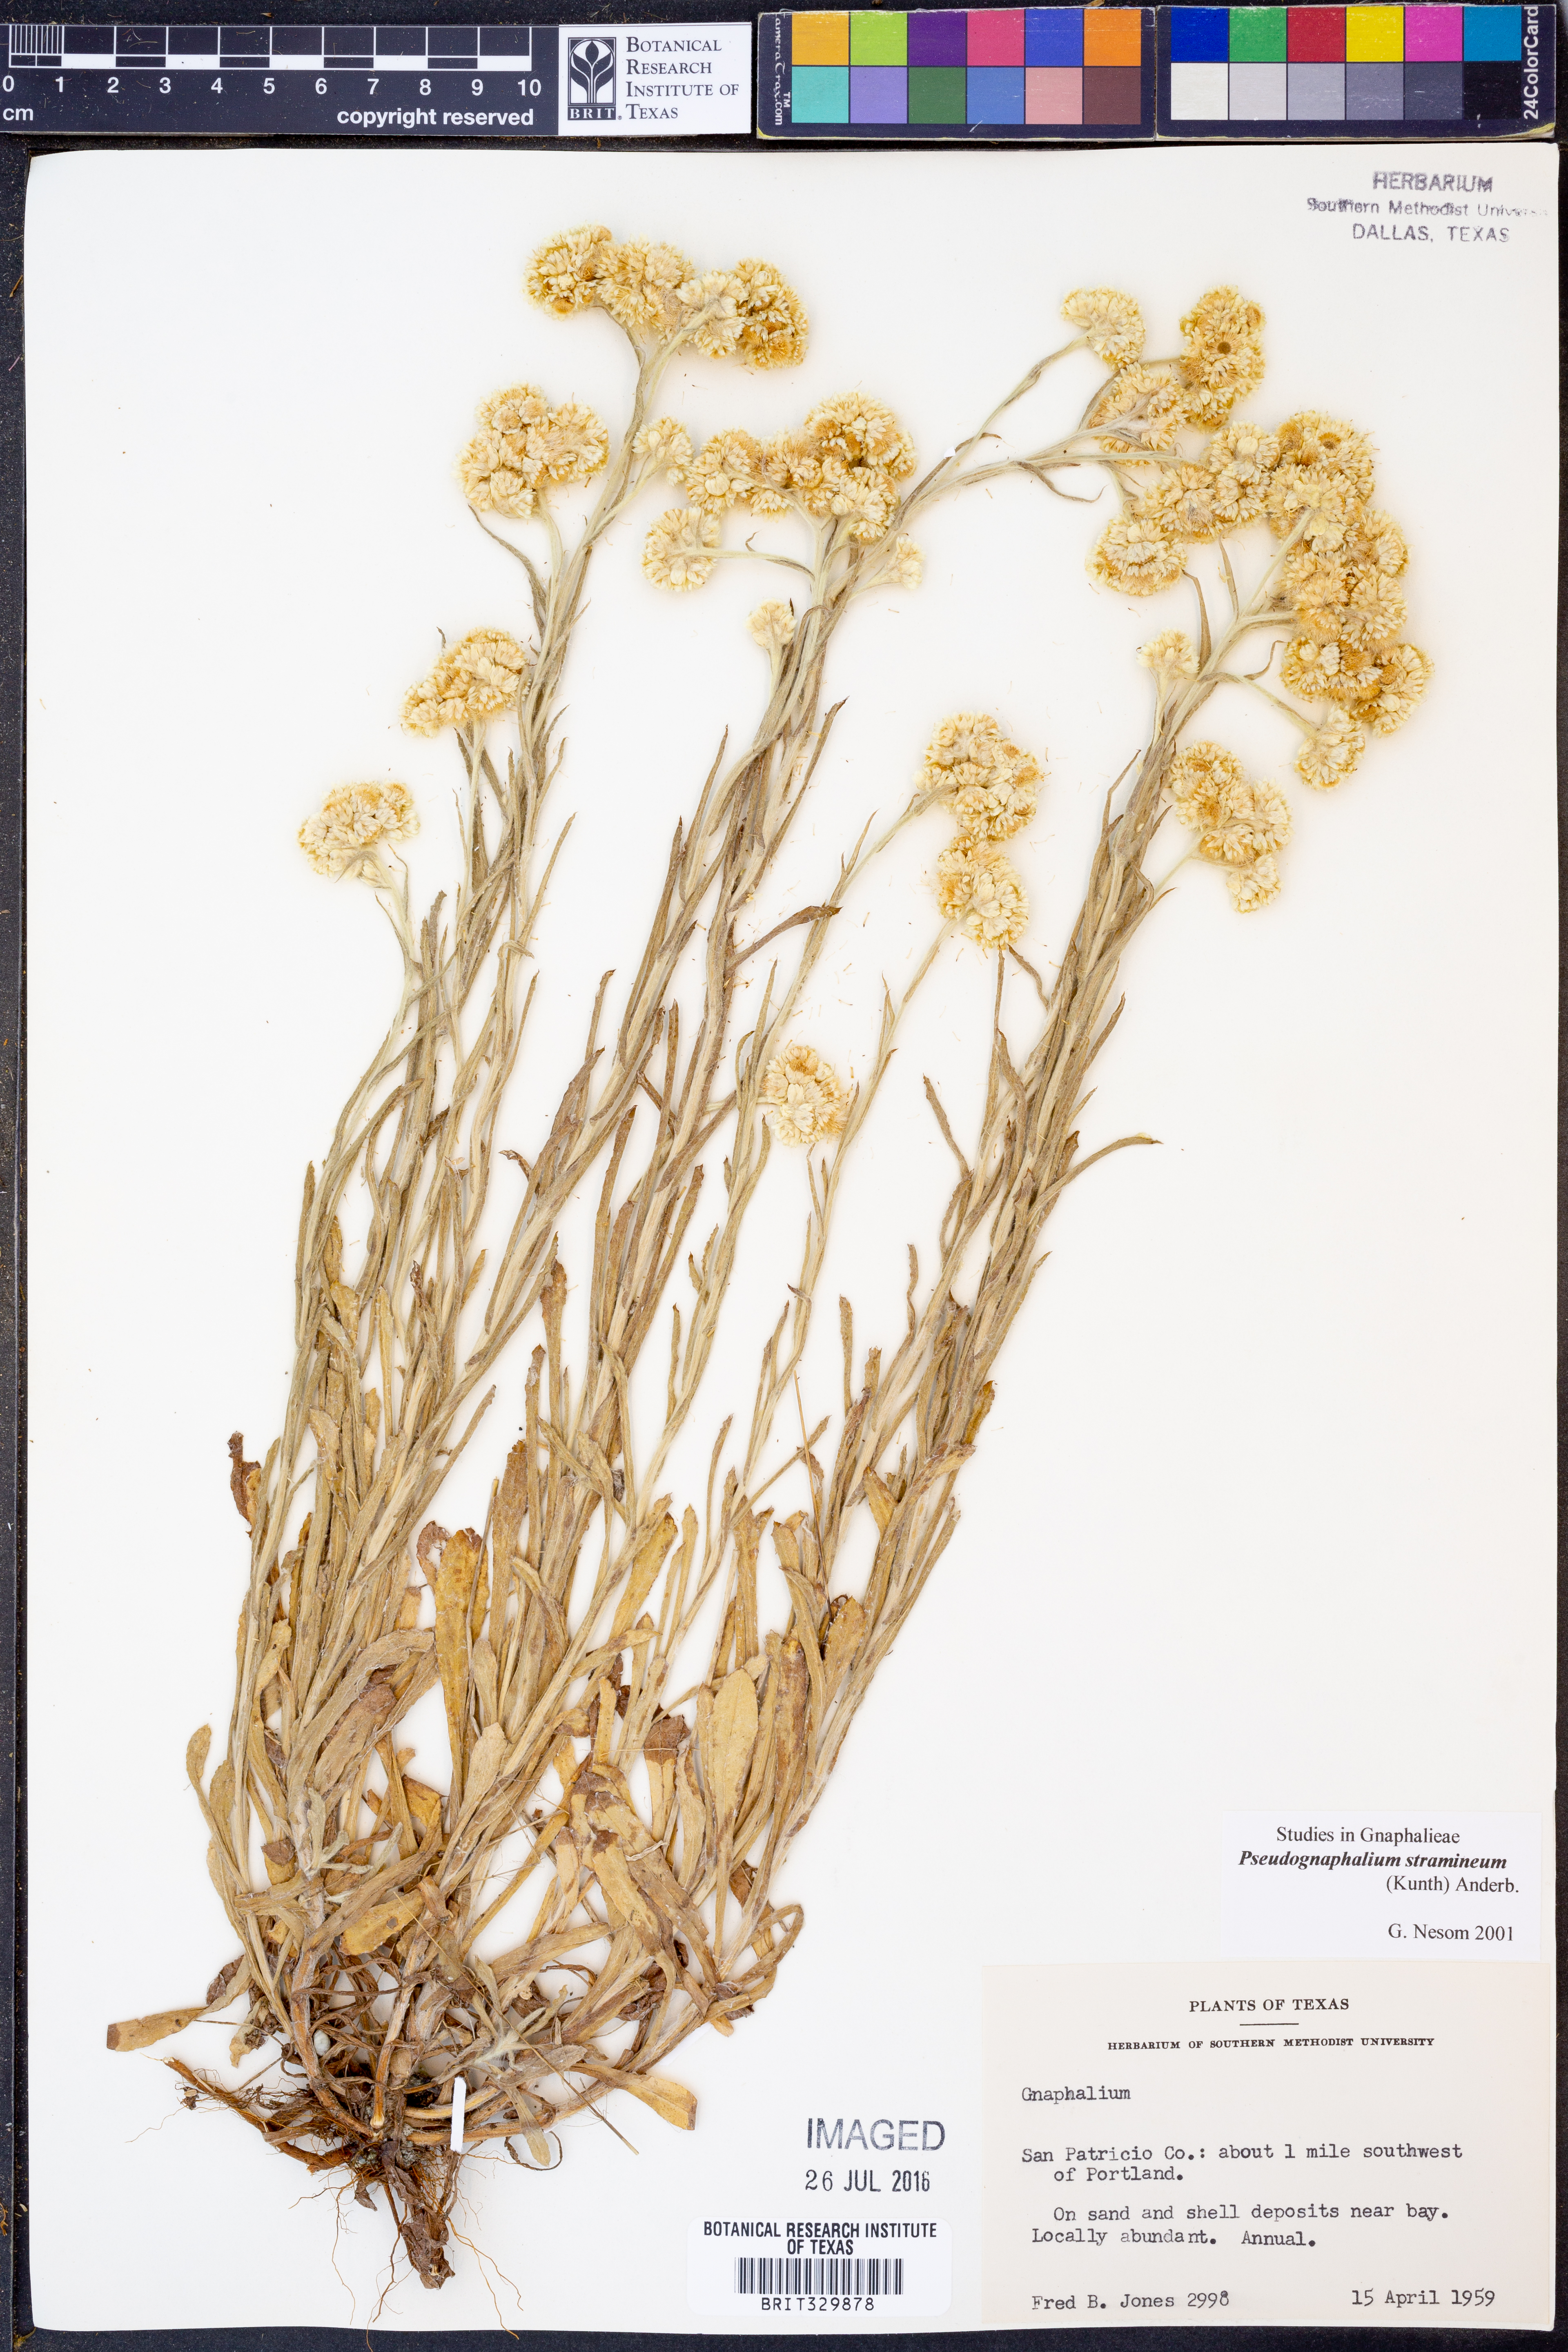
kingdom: Plantae
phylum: Tracheophyta
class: Magnoliopsida
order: Asterales
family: Asteraceae
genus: Pseudognaphalium
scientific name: Pseudognaphalium stramineum
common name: Cotton-batting-plant
